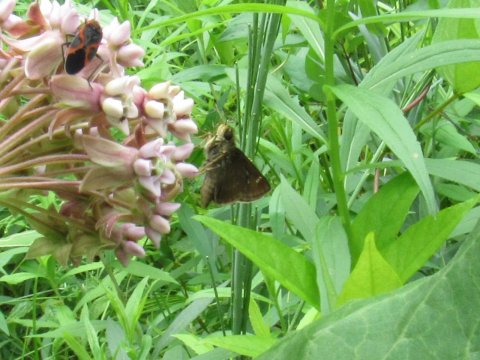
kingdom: Animalia
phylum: Arthropoda
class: Insecta
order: Lepidoptera
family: Hesperiidae
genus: Vernia
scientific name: Vernia verna
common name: Little Glassywing
